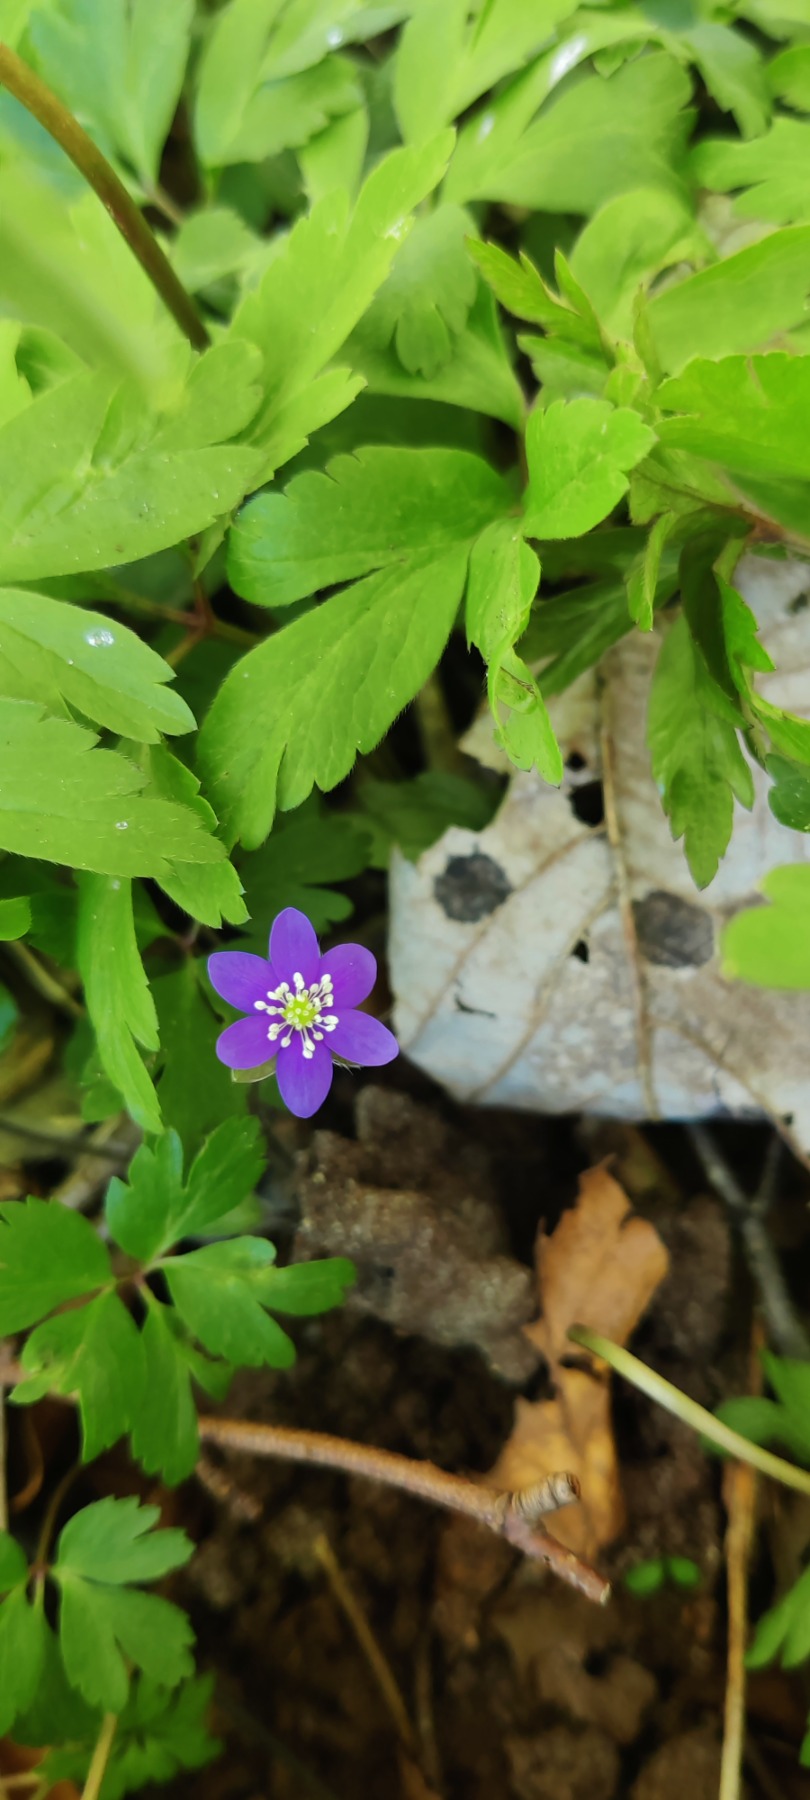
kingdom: Plantae
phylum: Tracheophyta
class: Magnoliopsida
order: Ranunculales
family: Ranunculaceae
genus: Hepatica
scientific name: Hepatica nobilis
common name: Blå anemone
